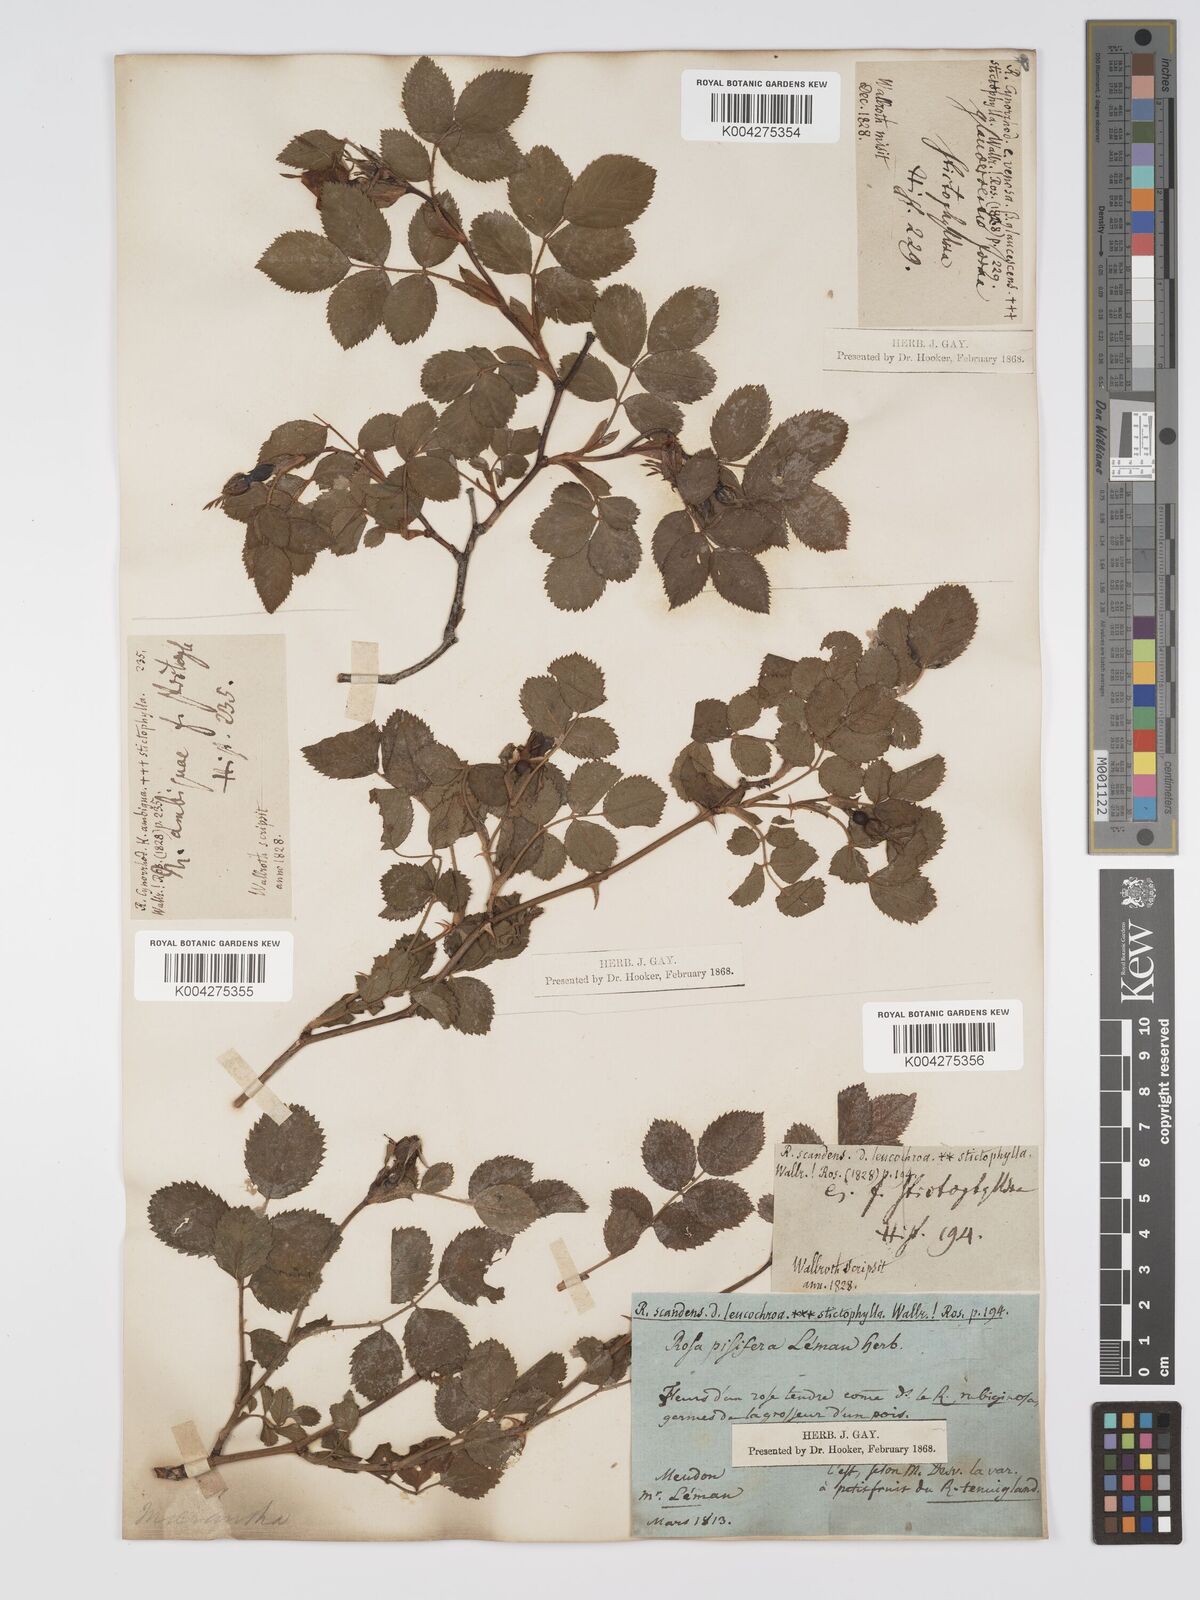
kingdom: Plantae
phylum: Tracheophyta
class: Magnoliopsida
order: Rosales
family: Rosaceae
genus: Rosa
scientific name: Rosa
